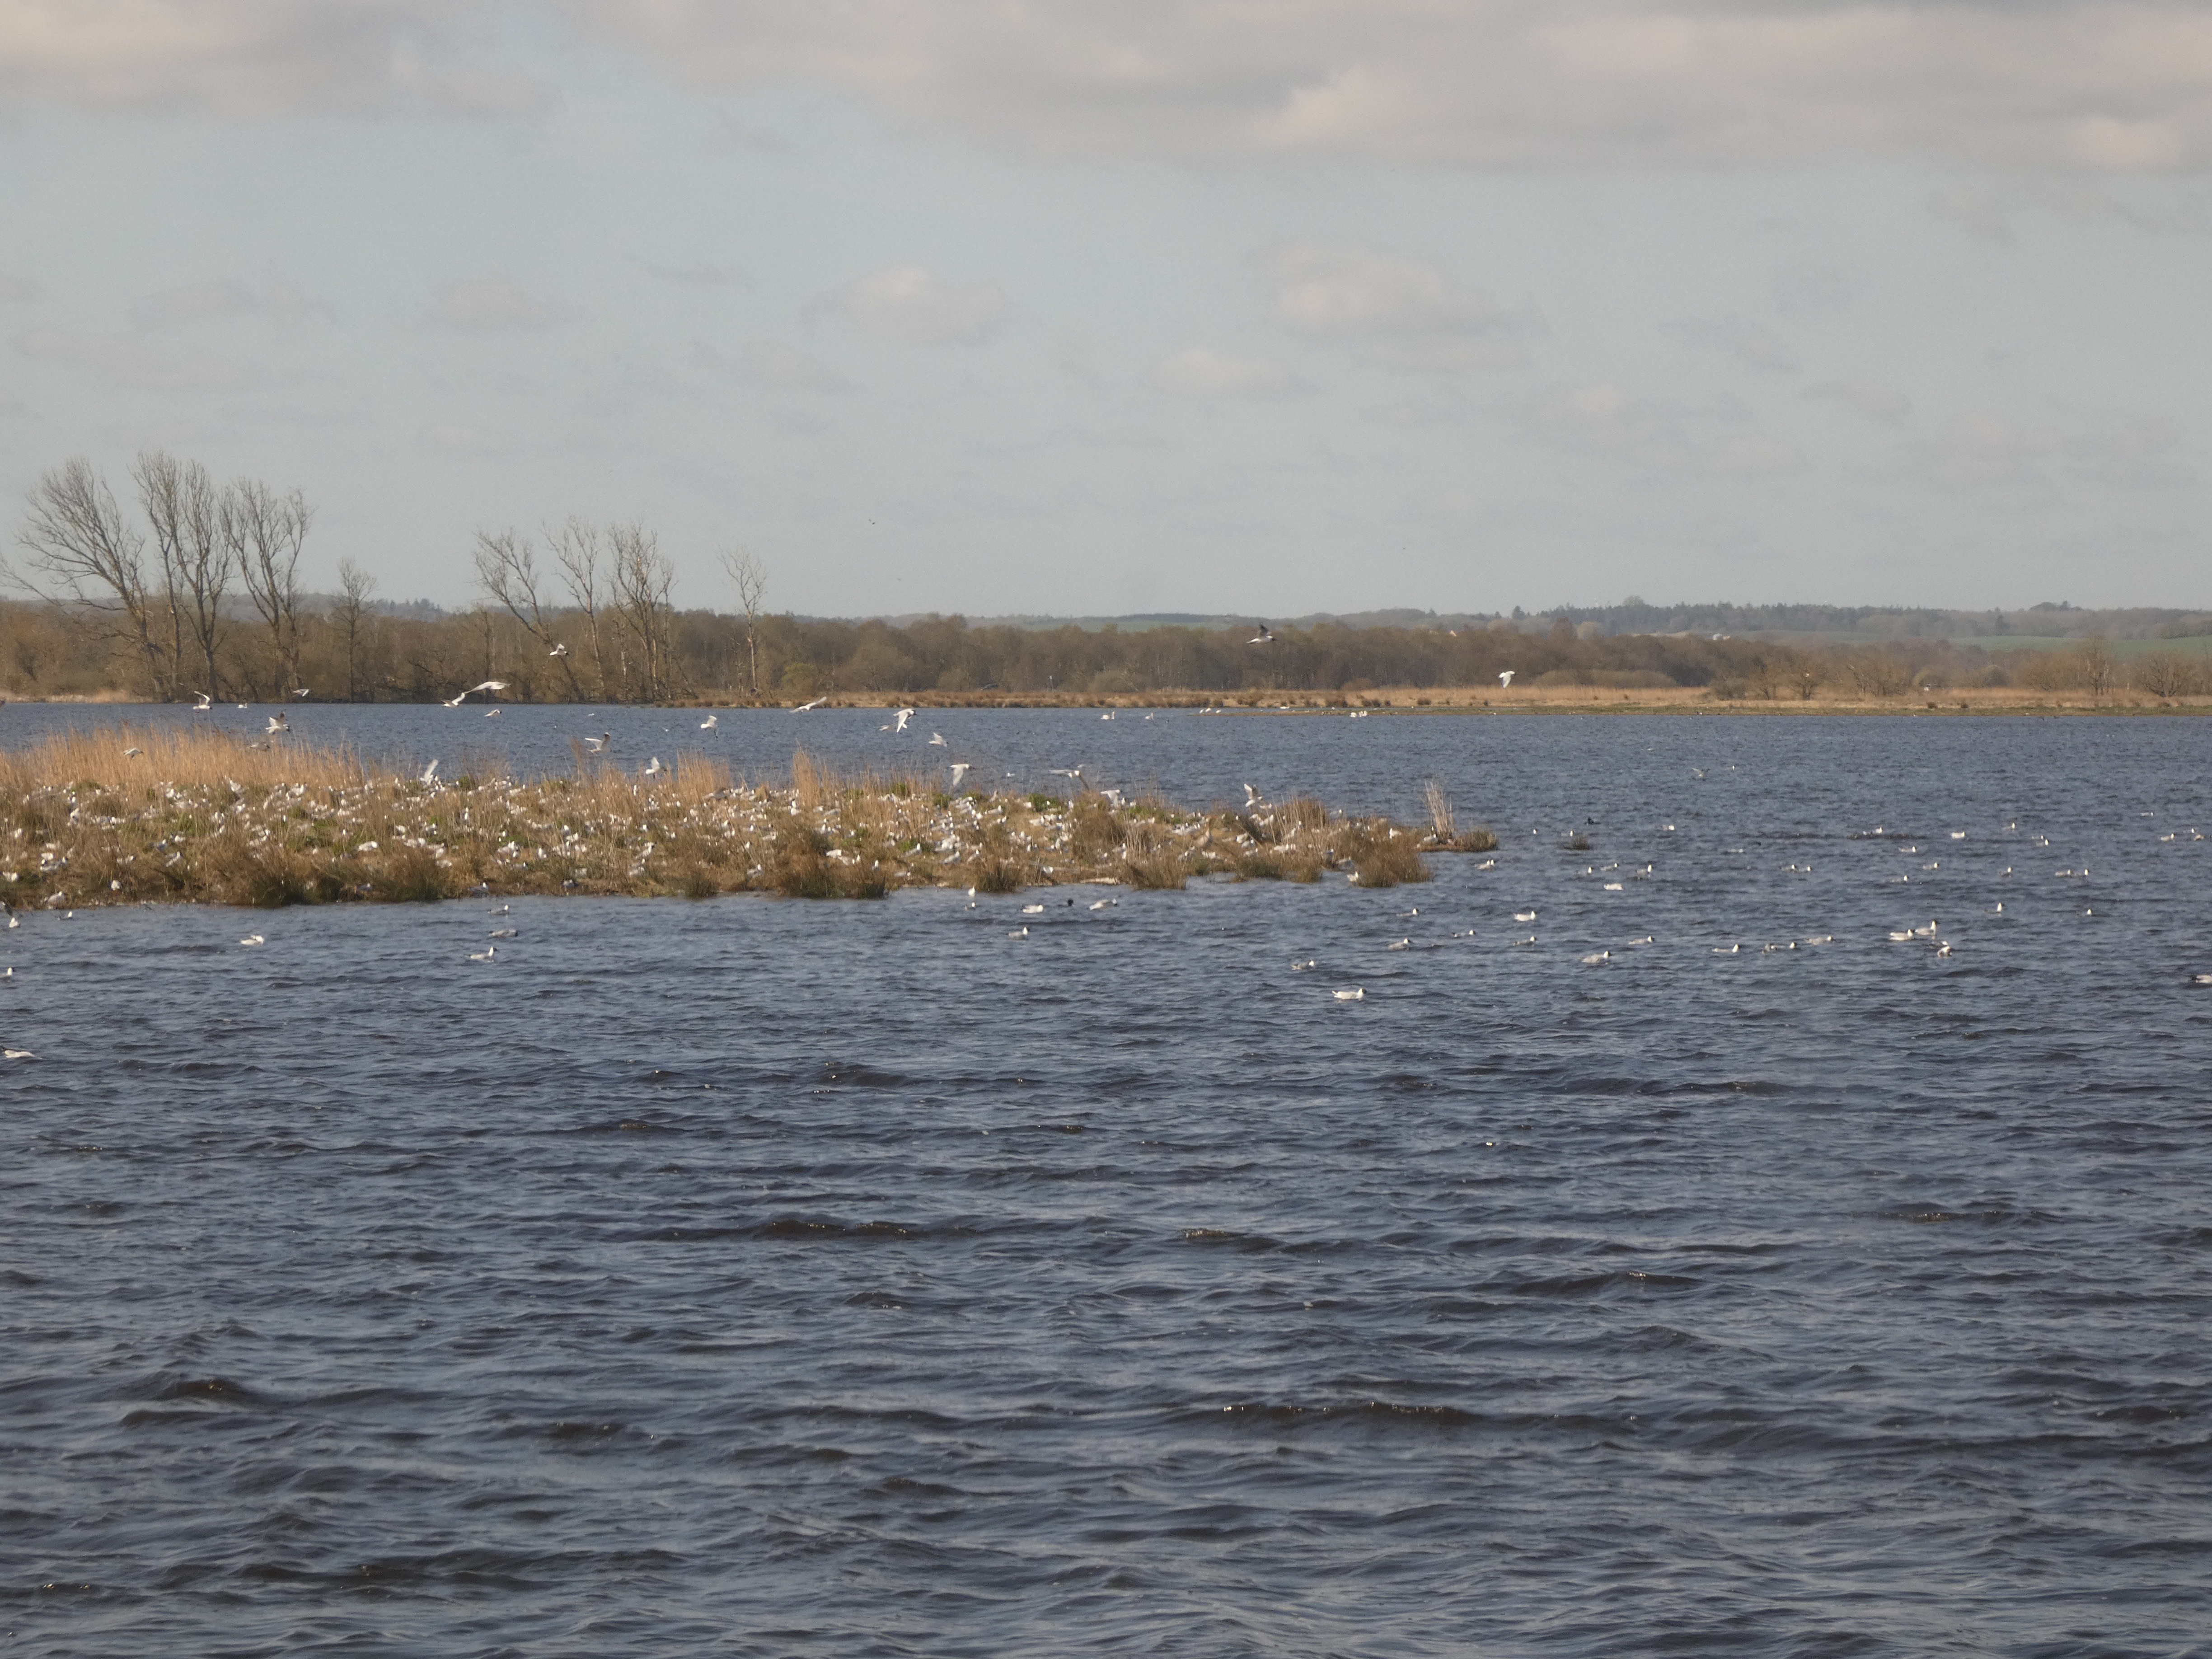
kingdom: Animalia
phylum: Chordata
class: Aves
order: Charadriiformes
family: Laridae
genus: Chroicocephalus
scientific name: Chroicocephalus ridibundus
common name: Hættemåge
